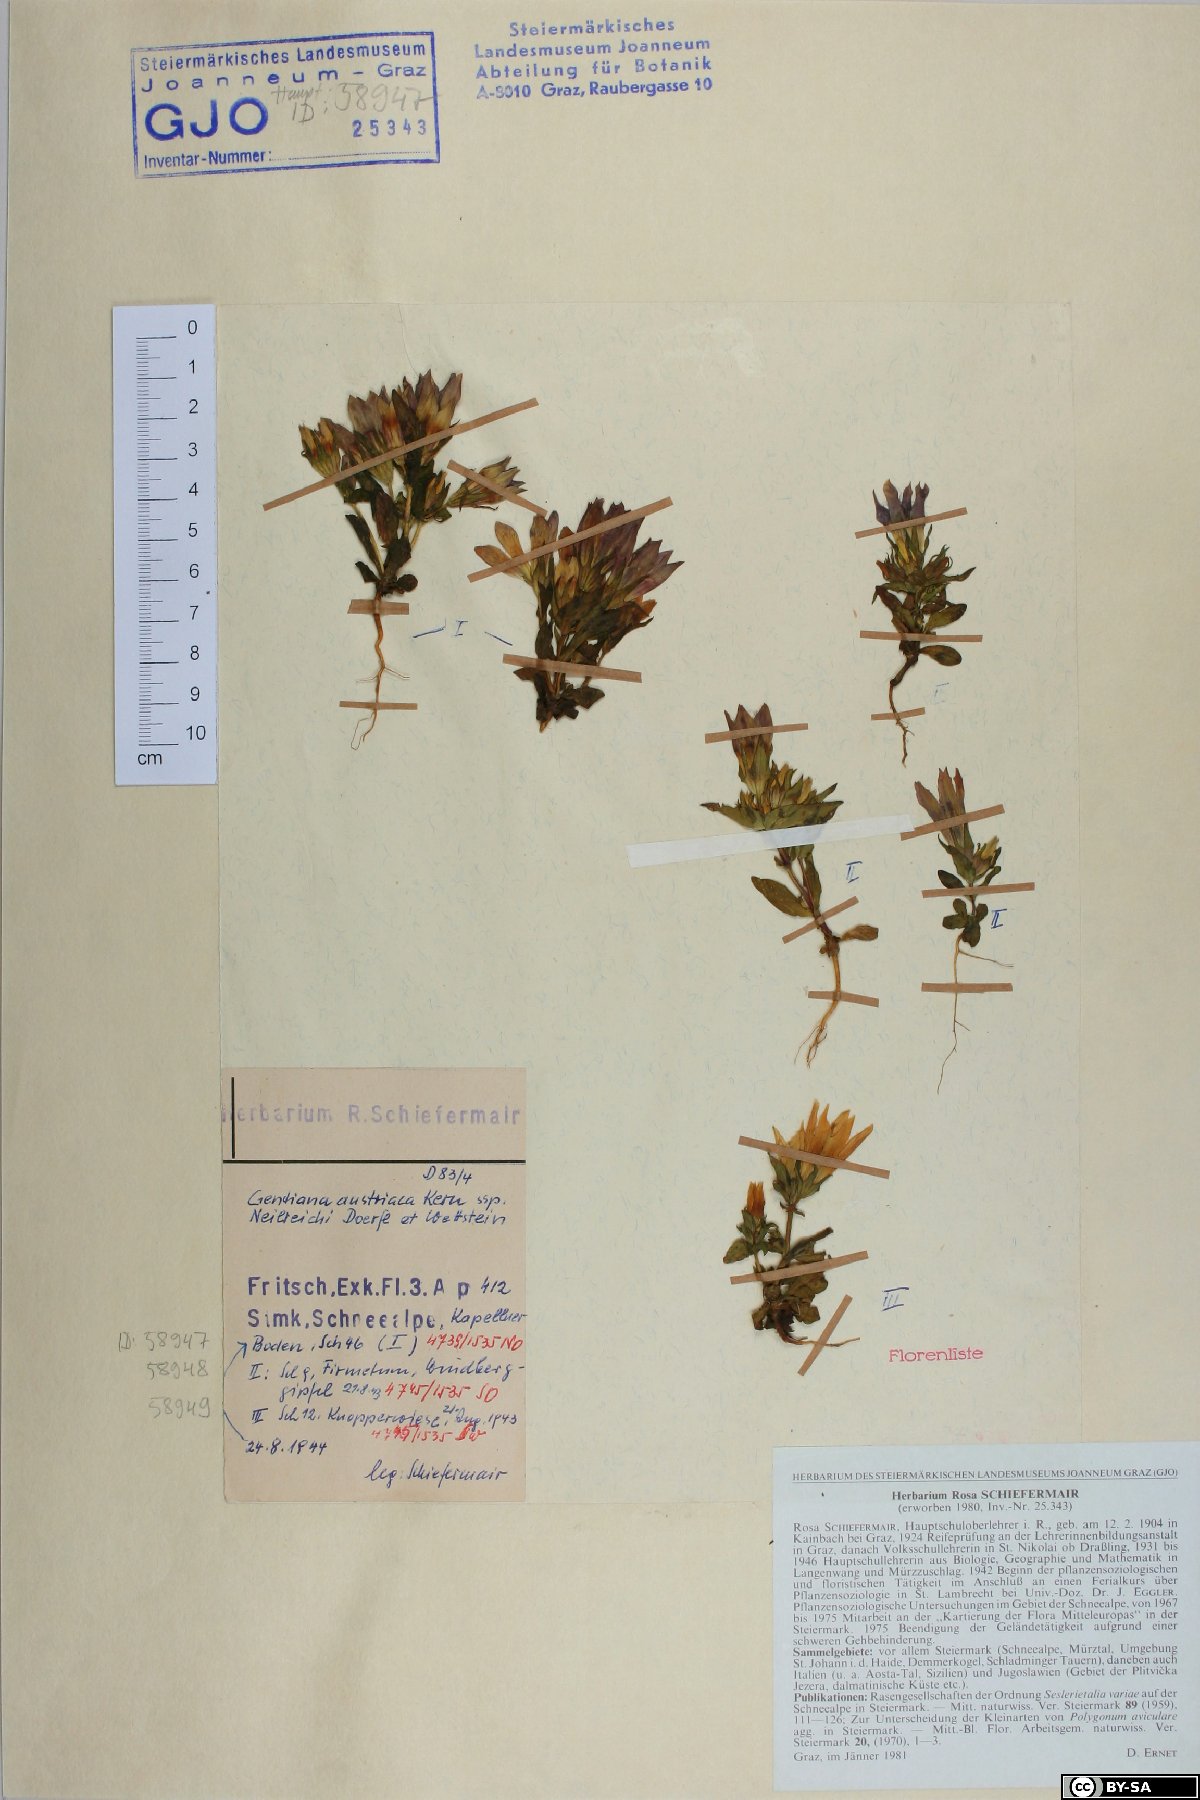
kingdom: Plantae
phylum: Tracheophyta
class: Magnoliopsida
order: Gentianales
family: Gentianaceae
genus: Gentianella
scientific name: Gentianella austriaca
